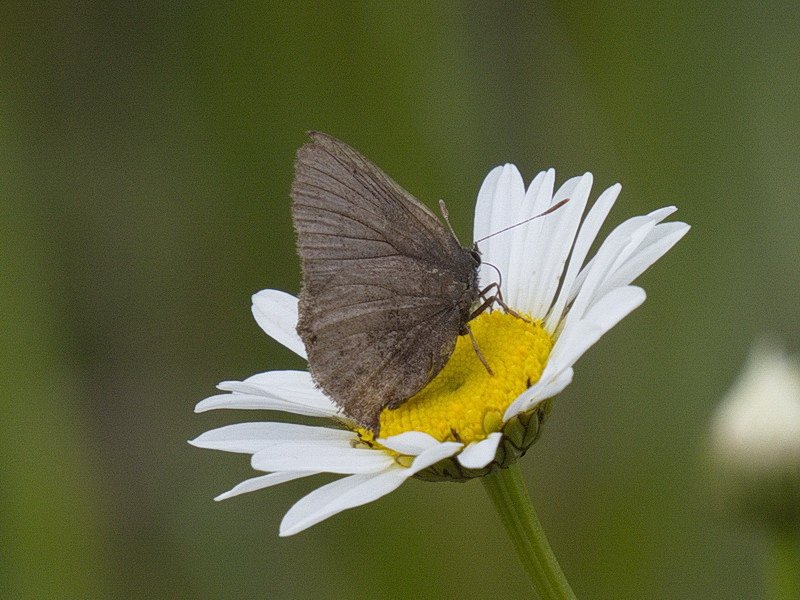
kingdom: Animalia
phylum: Arthropoda
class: Insecta
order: Lepidoptera
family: Lycaenidae
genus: Incisalia
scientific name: Incisalia irioides
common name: Brown Elfin
